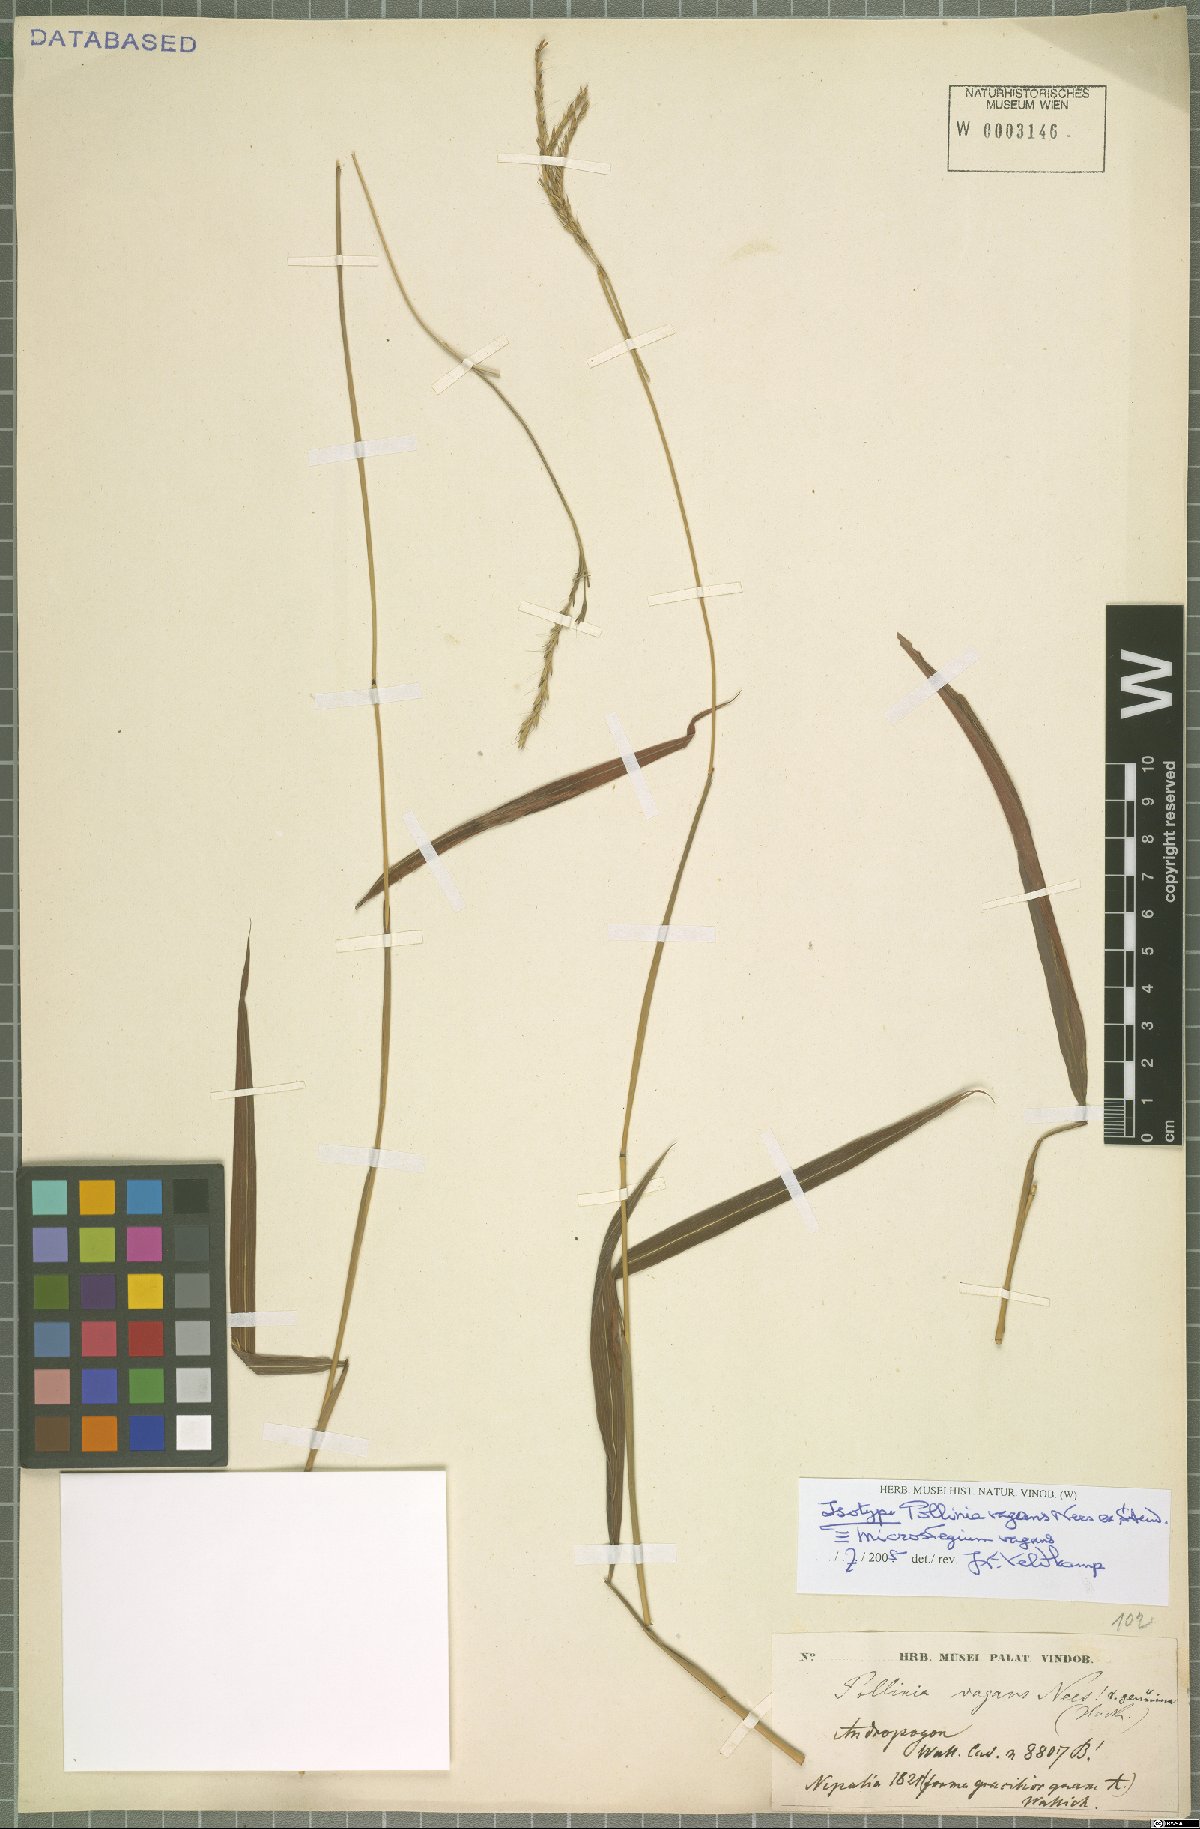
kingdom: Plantae
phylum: Tracheophyta
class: Liliopsida
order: Poales
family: Poaceae
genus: Microstegium
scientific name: Microstegium fasciculatum
